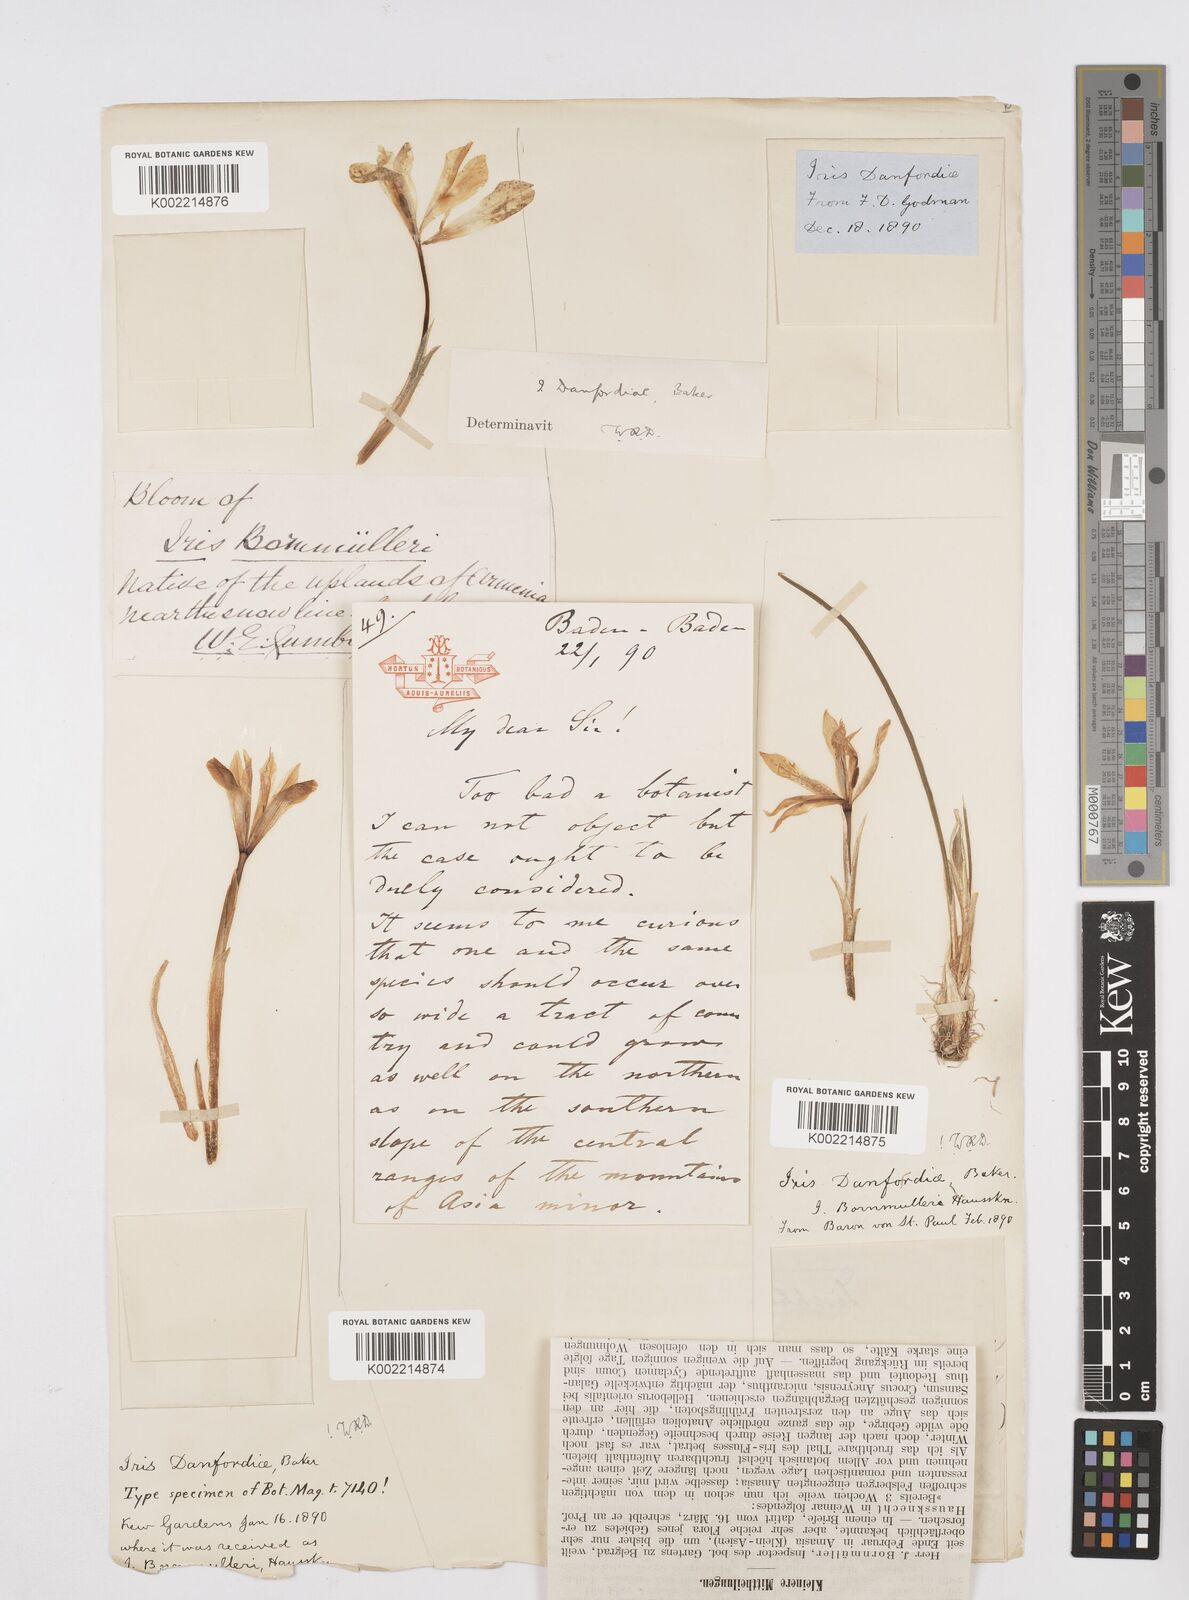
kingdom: Plantae
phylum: Tracheophyta
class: Liliopsida
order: Asparagales
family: Iridaceae
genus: Iris
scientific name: Iris danfordiae
